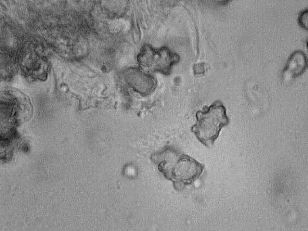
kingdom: Fungi
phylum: Basidiomycota
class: Agaricomycetes
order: Agaricales
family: Inocybaceae
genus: Inocybe
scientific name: Inocybe mixtilis
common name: randknoldet trævlhat
